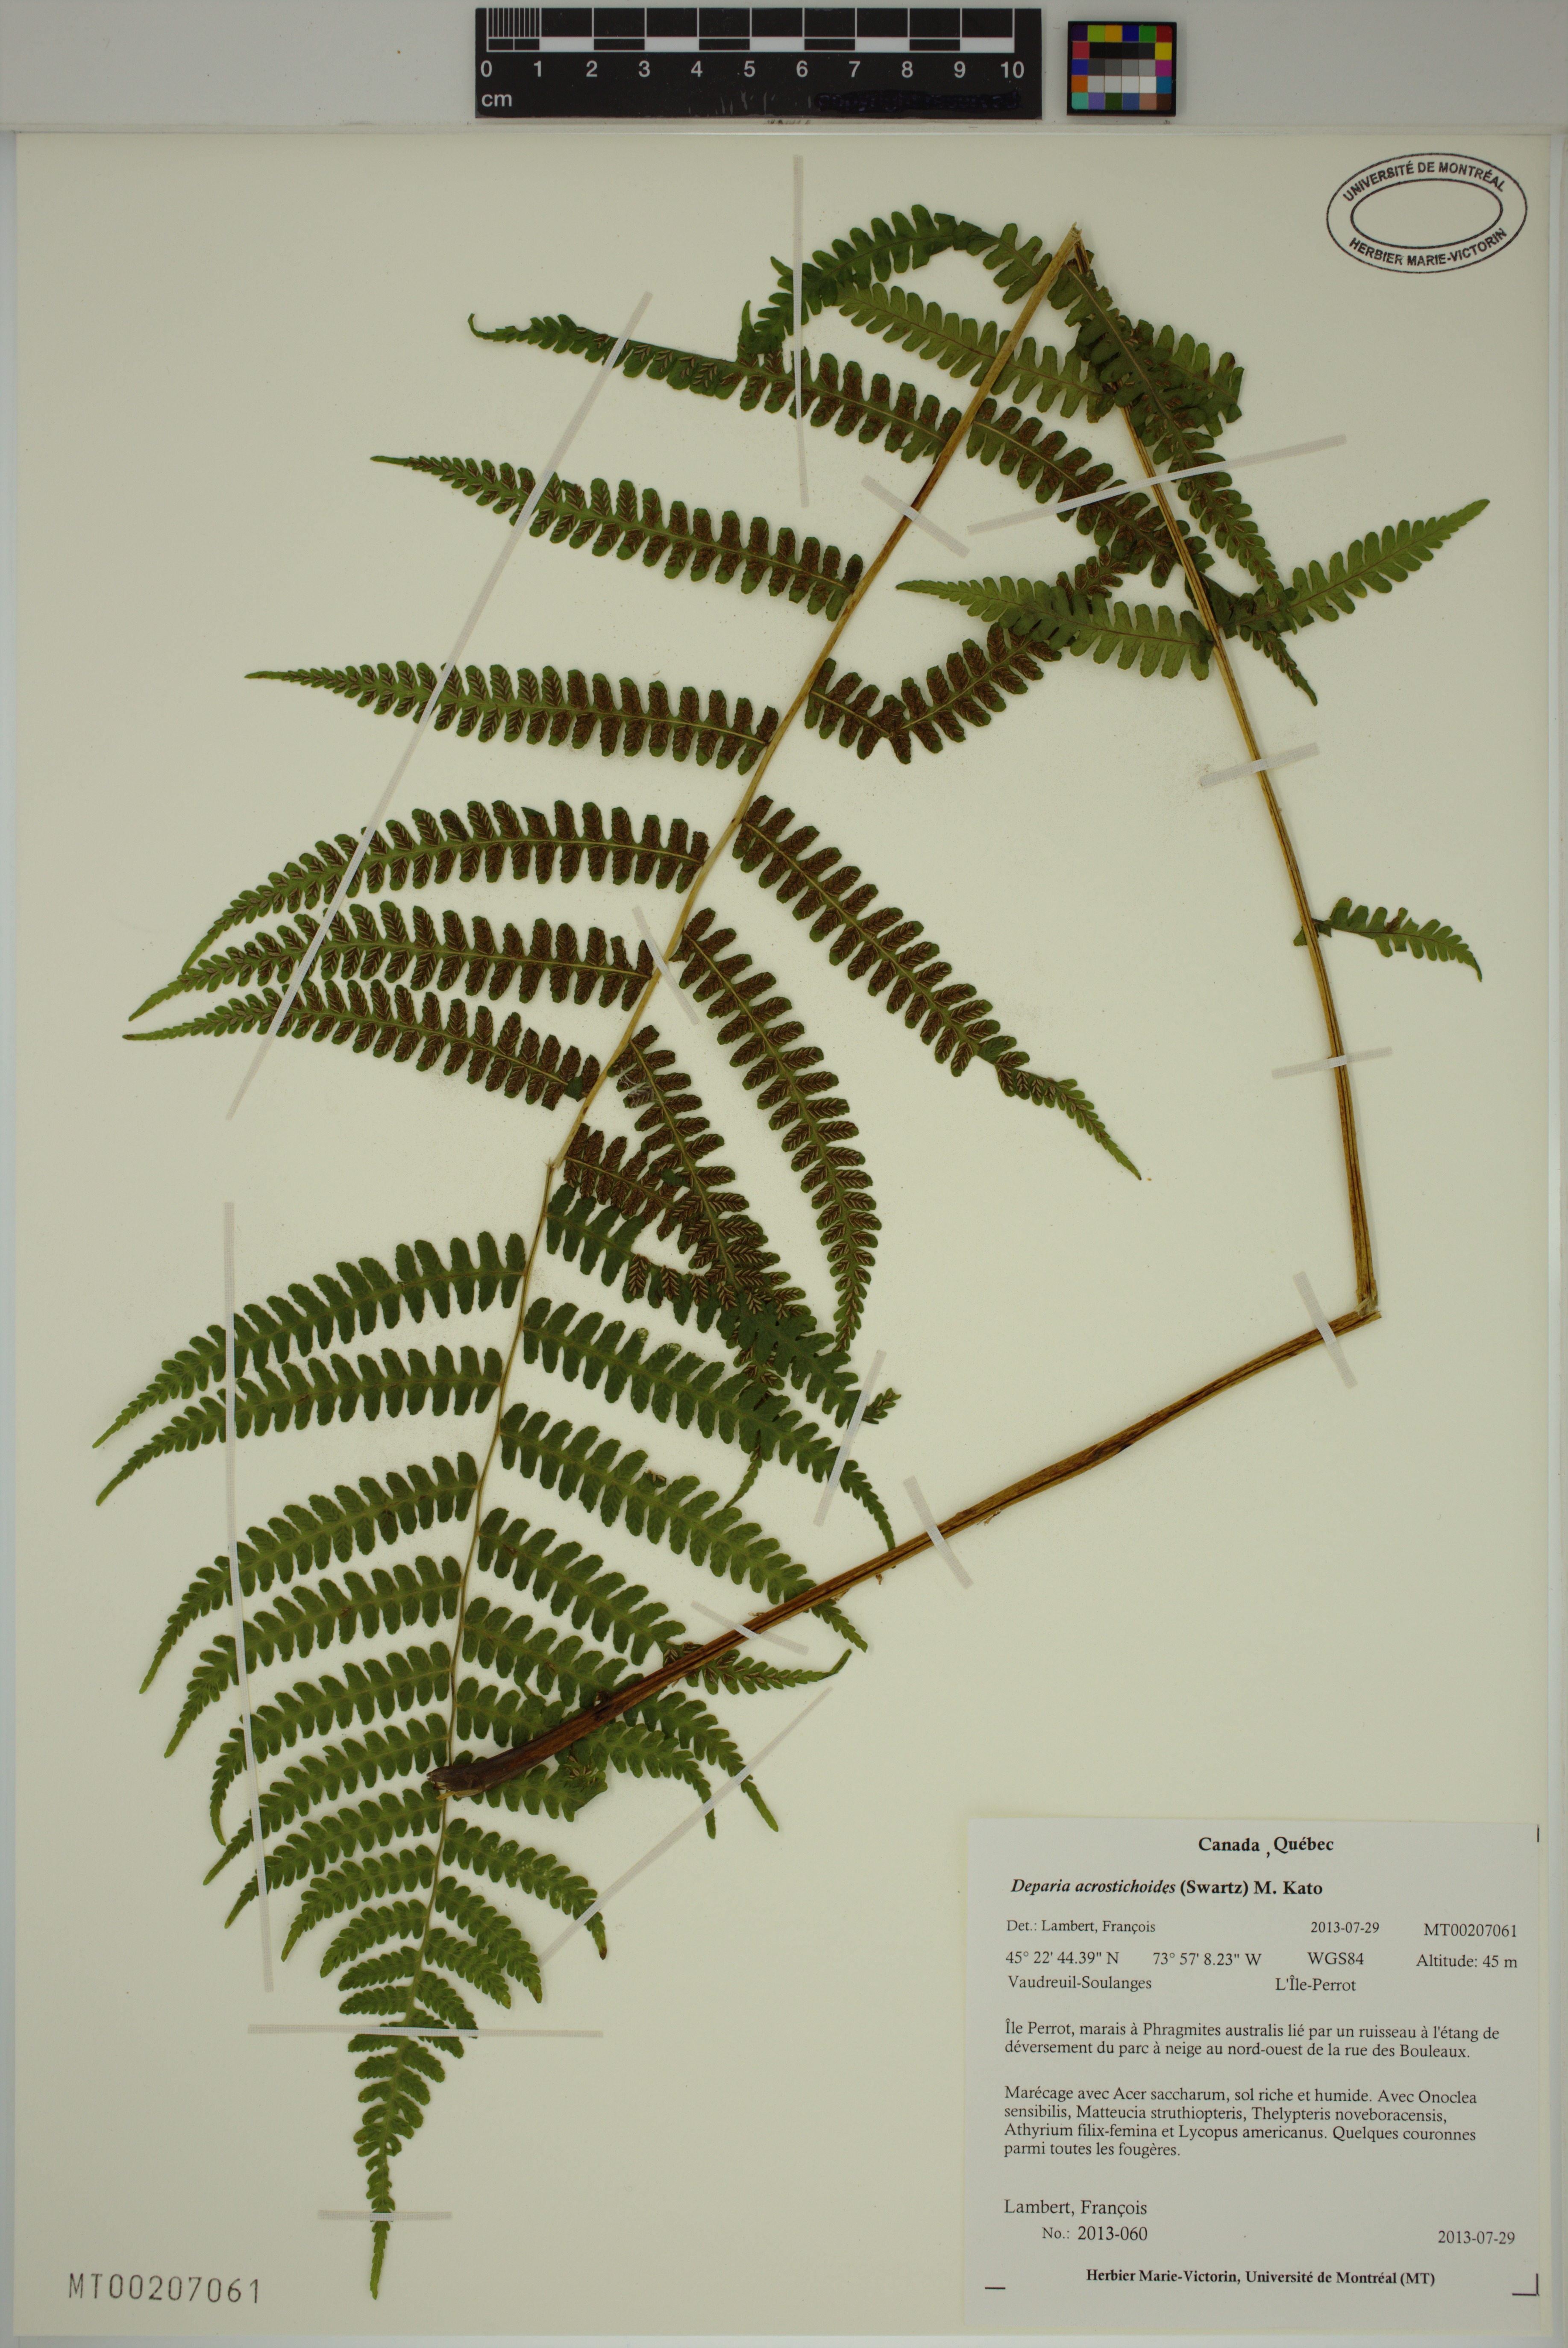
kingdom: Plantae
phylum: Tracheophyta
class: Polypodiopsida
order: Polypodiales
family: Athyriaceae
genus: Deparia
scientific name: Deparia acrostichoides
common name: Silver false spleenwort
